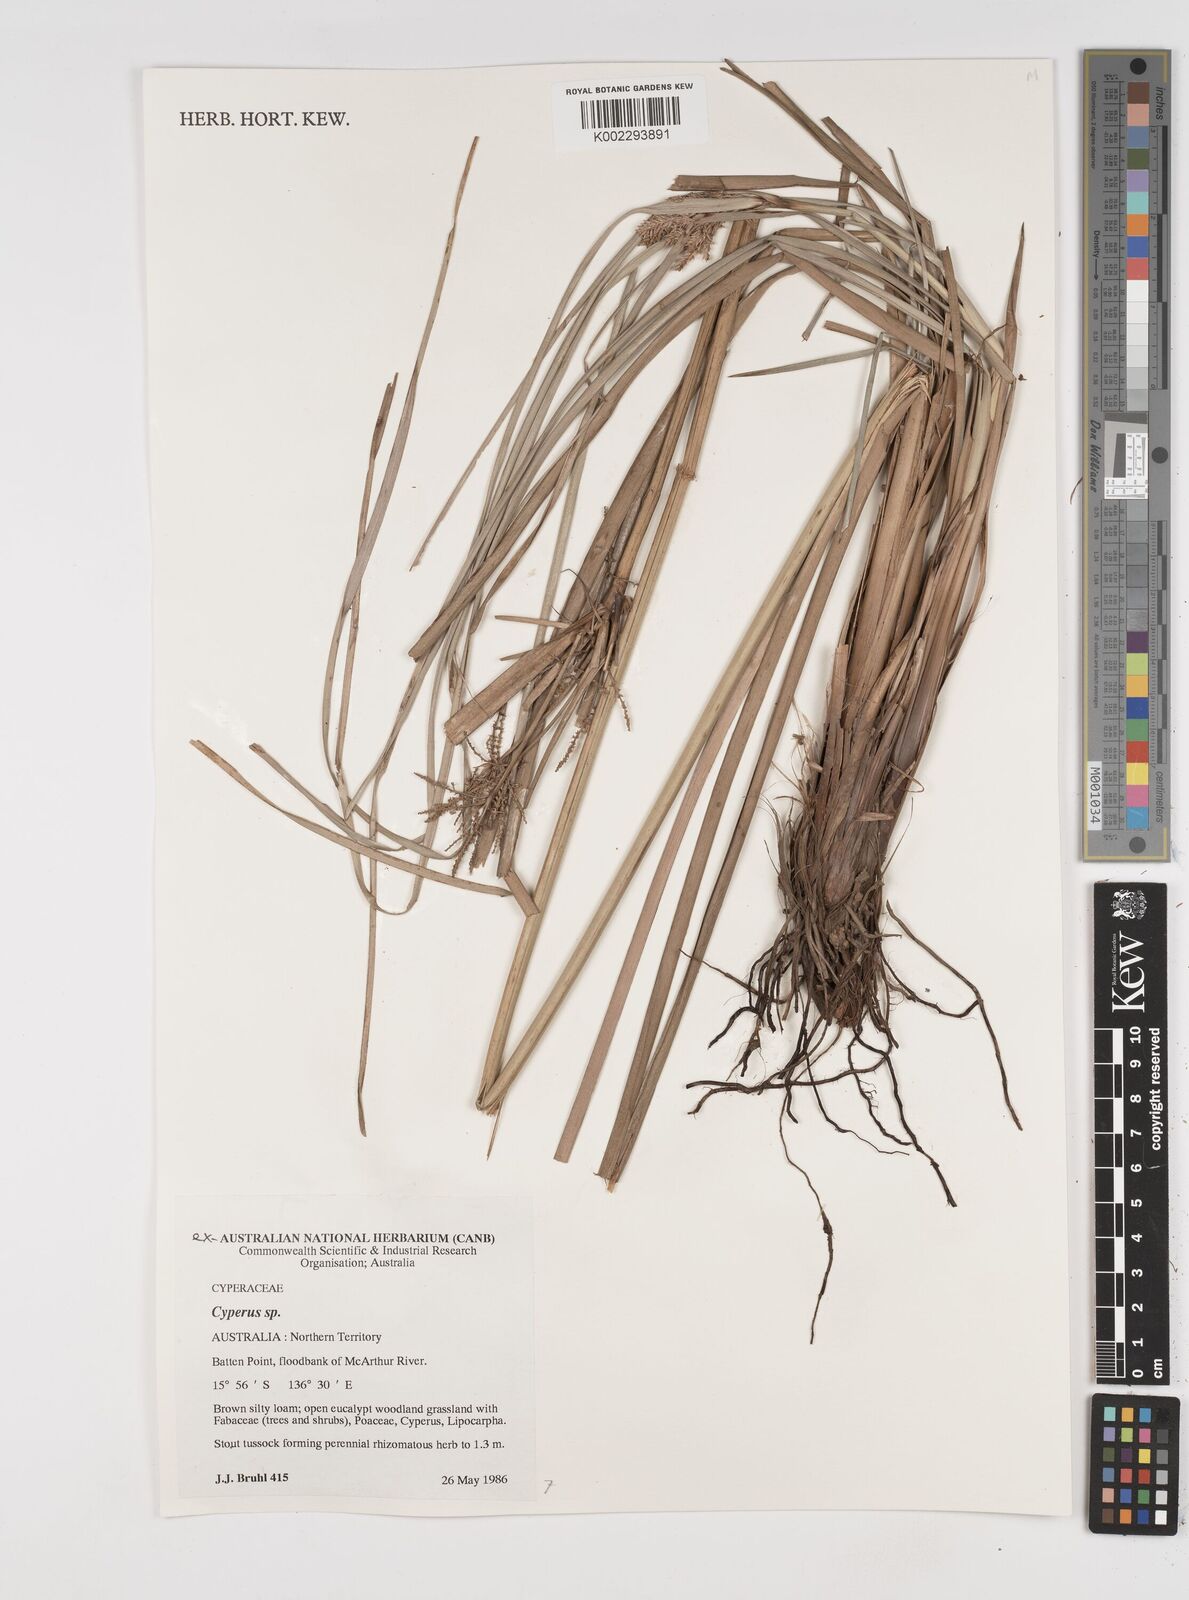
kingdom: Plantae
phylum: Tracheophyta
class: Liliopsida
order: Poales
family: Cyperaceae
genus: Cyperus
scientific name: Cyperus
